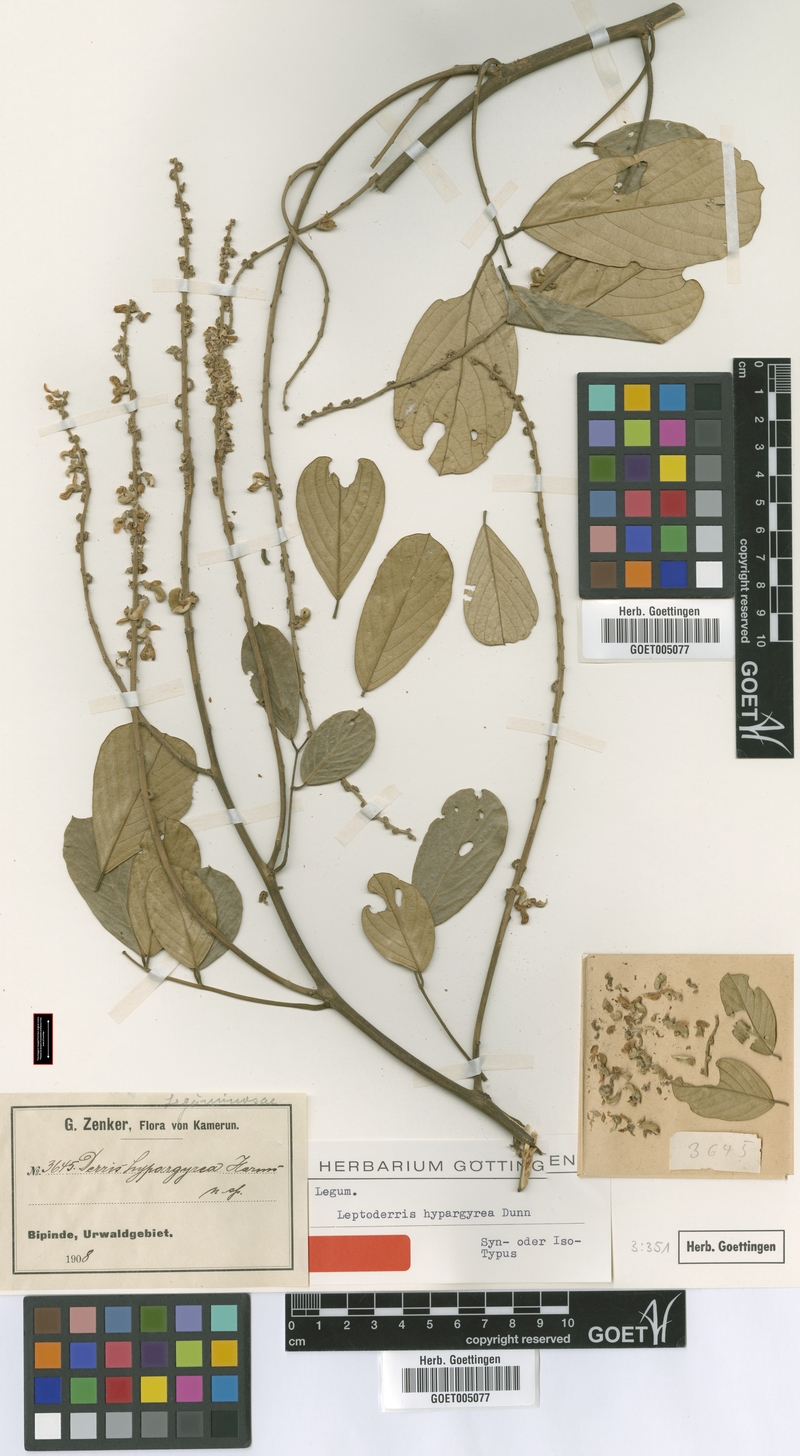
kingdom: Plantae
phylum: Tracheophyta
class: Magnoliopsida
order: Fabales
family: Fabaceae
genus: Leptoderris
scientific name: Leptoderris hypargyrea
